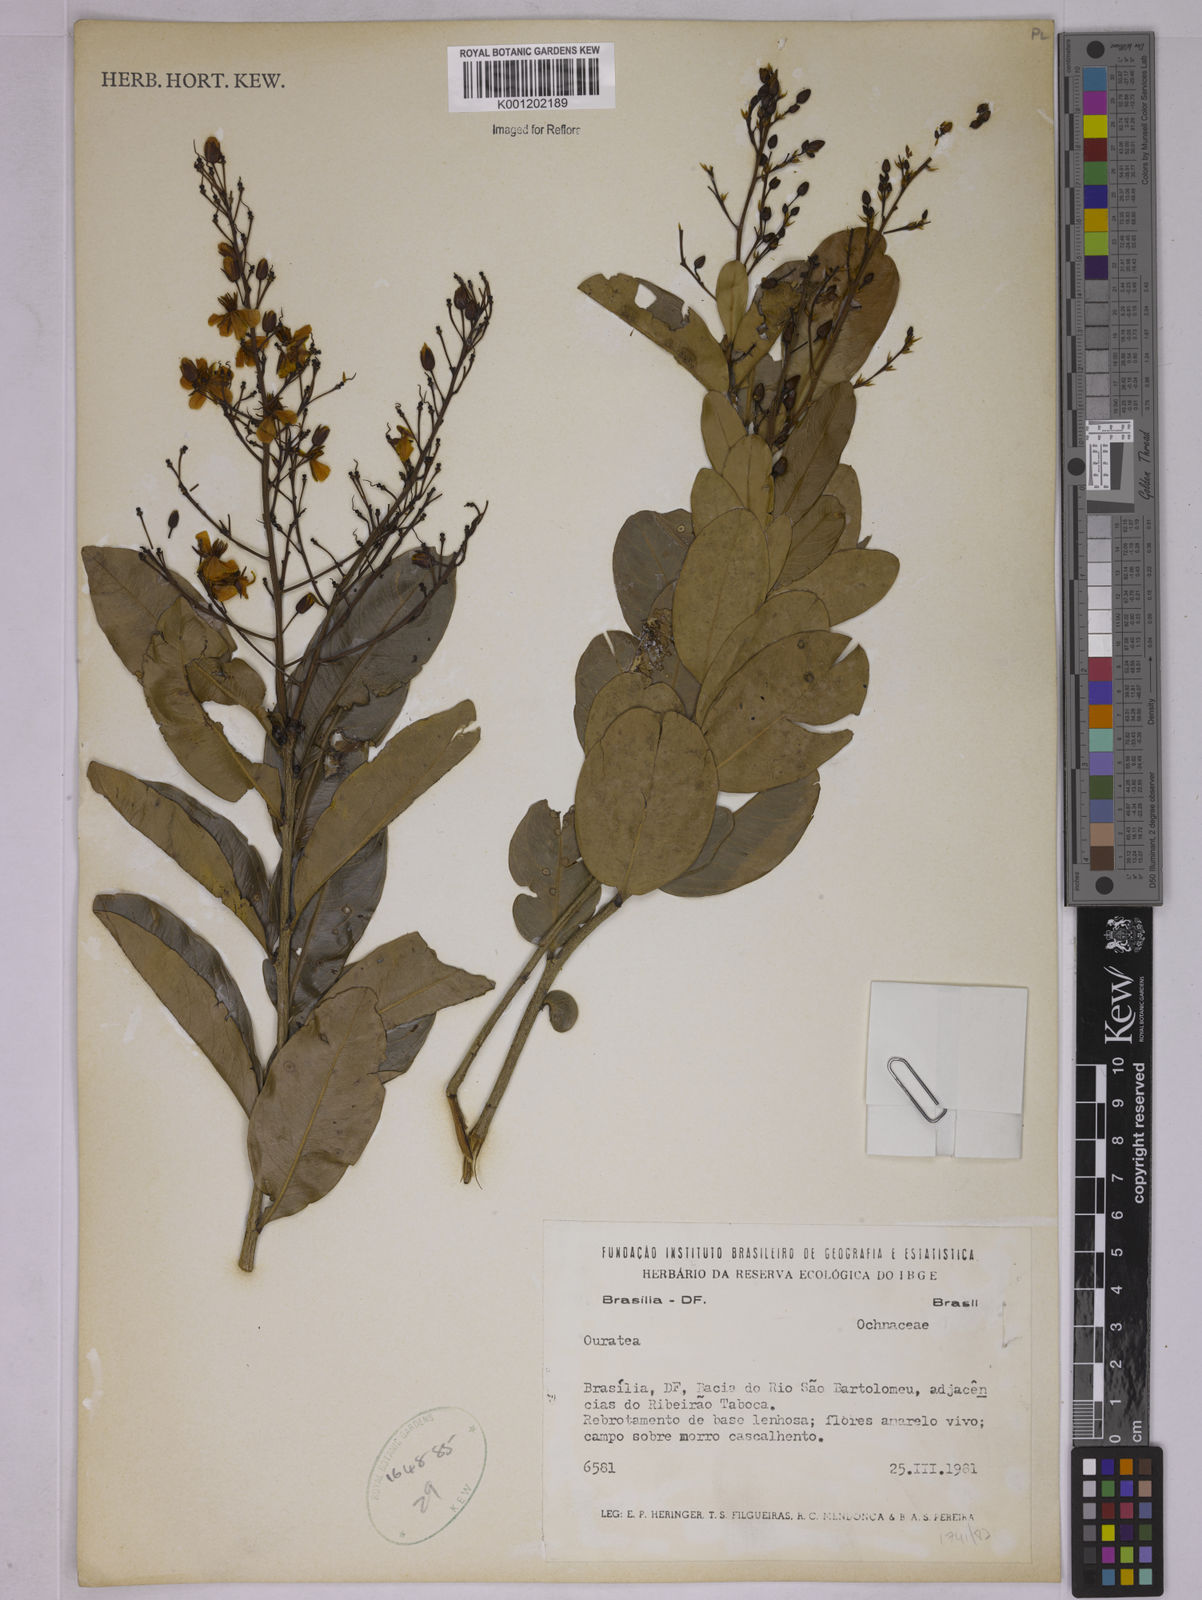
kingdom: Plantae
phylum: Tracheophyta
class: Magnoliopsida
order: Malpighiales
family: Ochnaceae
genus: Ouratea
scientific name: Ouratea
